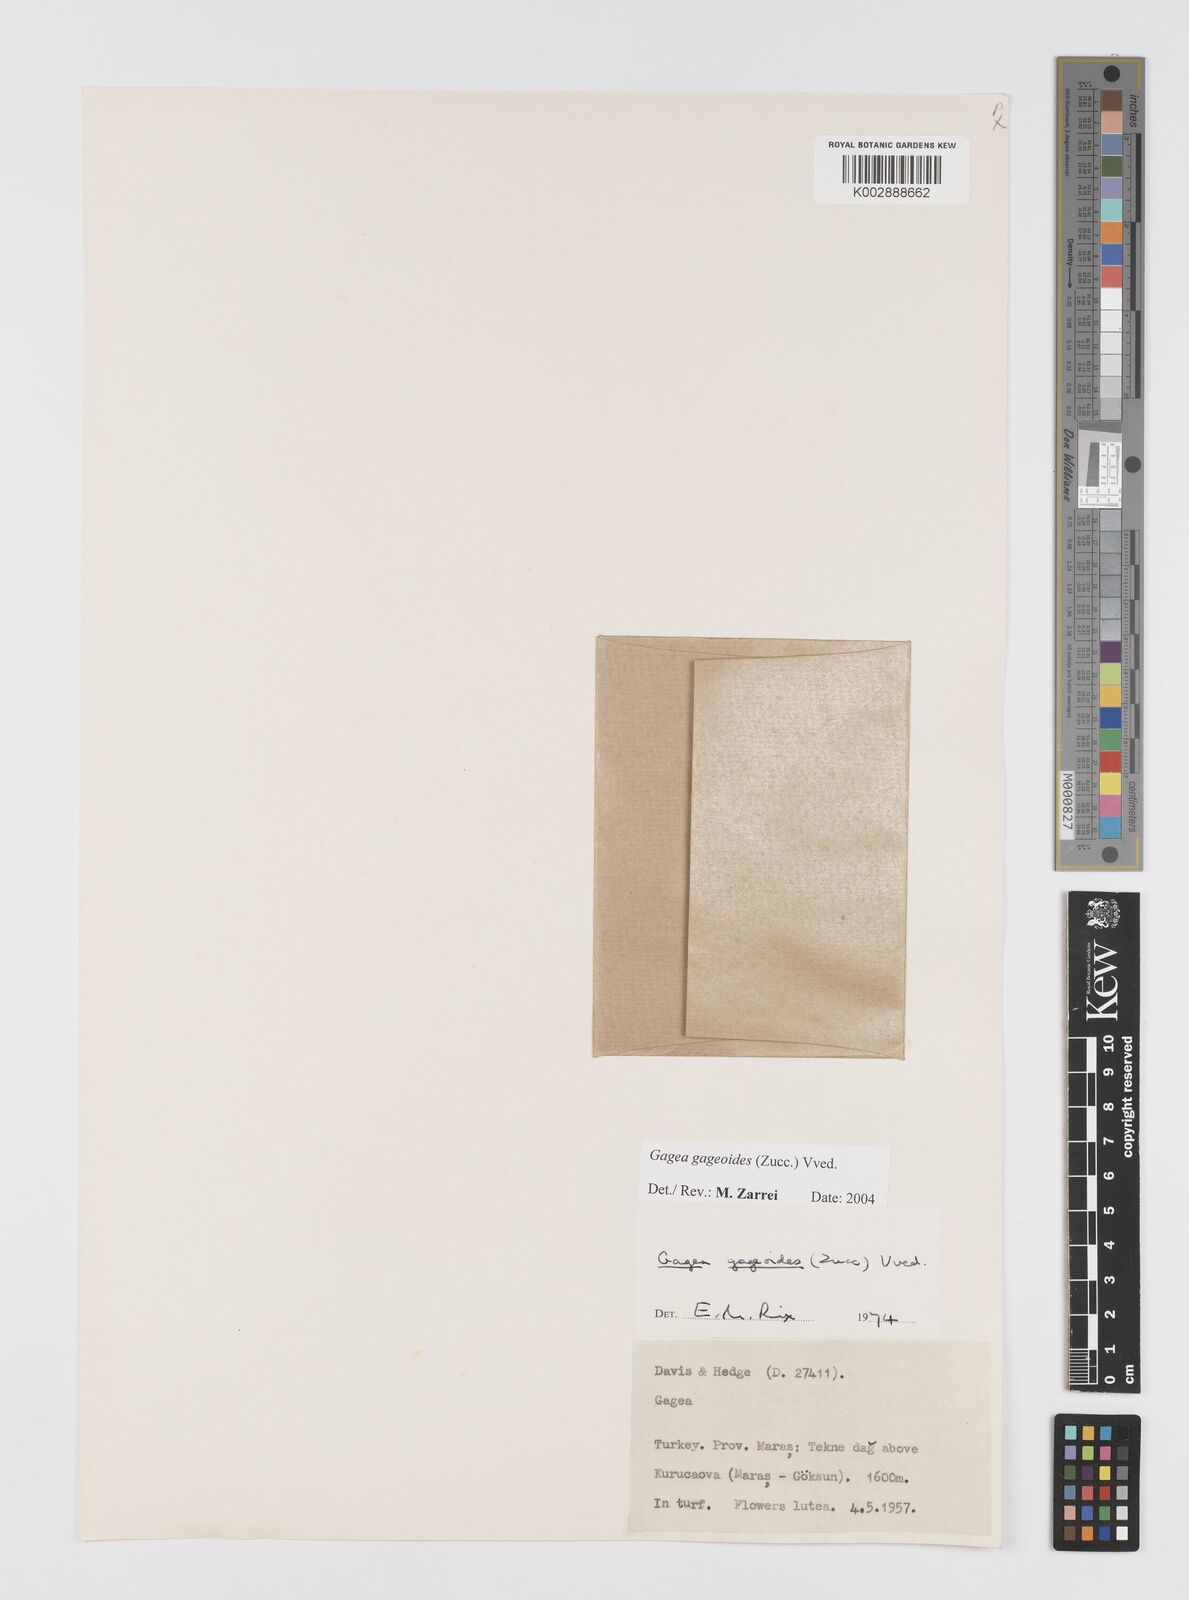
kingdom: Plantae
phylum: Tracheophyta
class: Liliopsida
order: Liliales
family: Liliaceae
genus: Gagea
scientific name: Gagea gageoides
